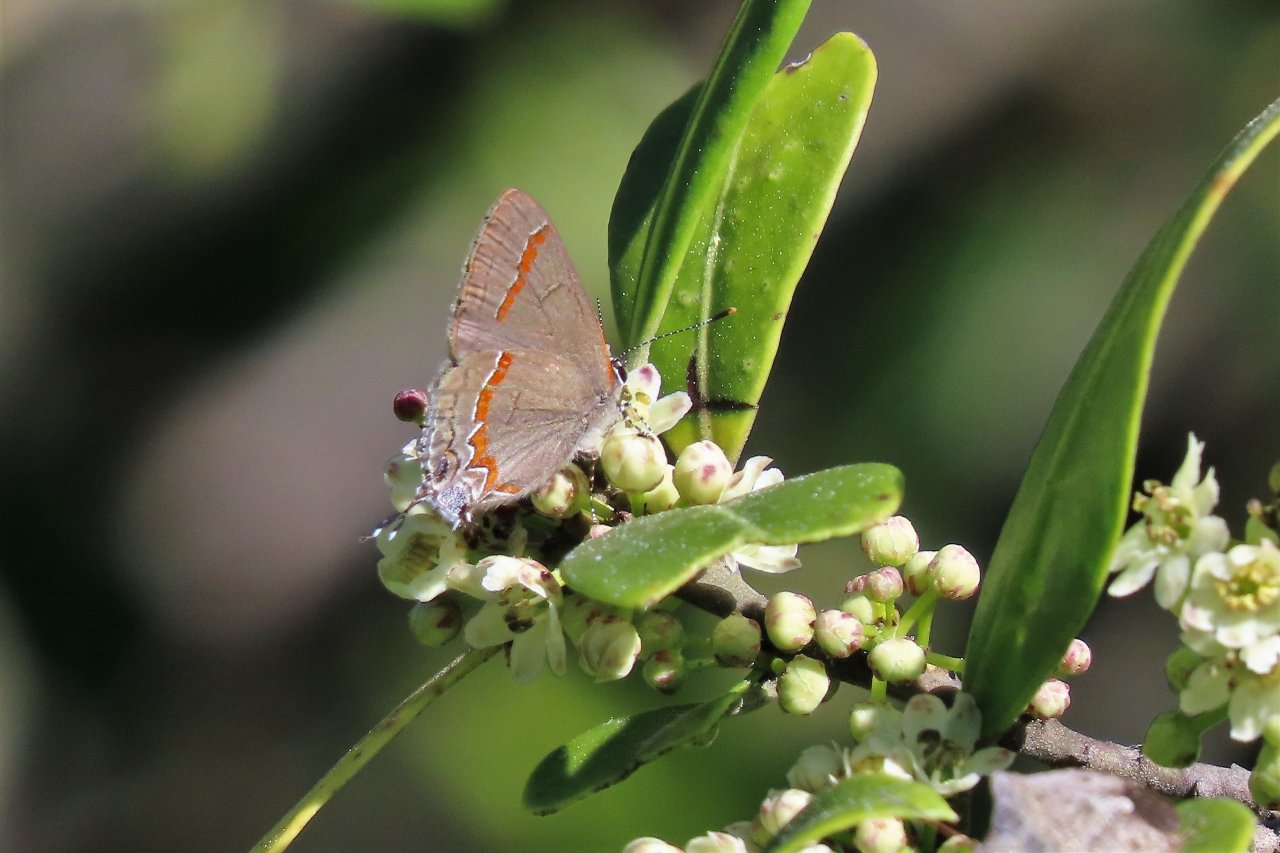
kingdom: Animalia
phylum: Arthropoda
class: Insecta
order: Lepidoptera
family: Lycaenidae
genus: Calycopis
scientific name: Calycopis cecrops
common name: Red-banded Hairstreak
